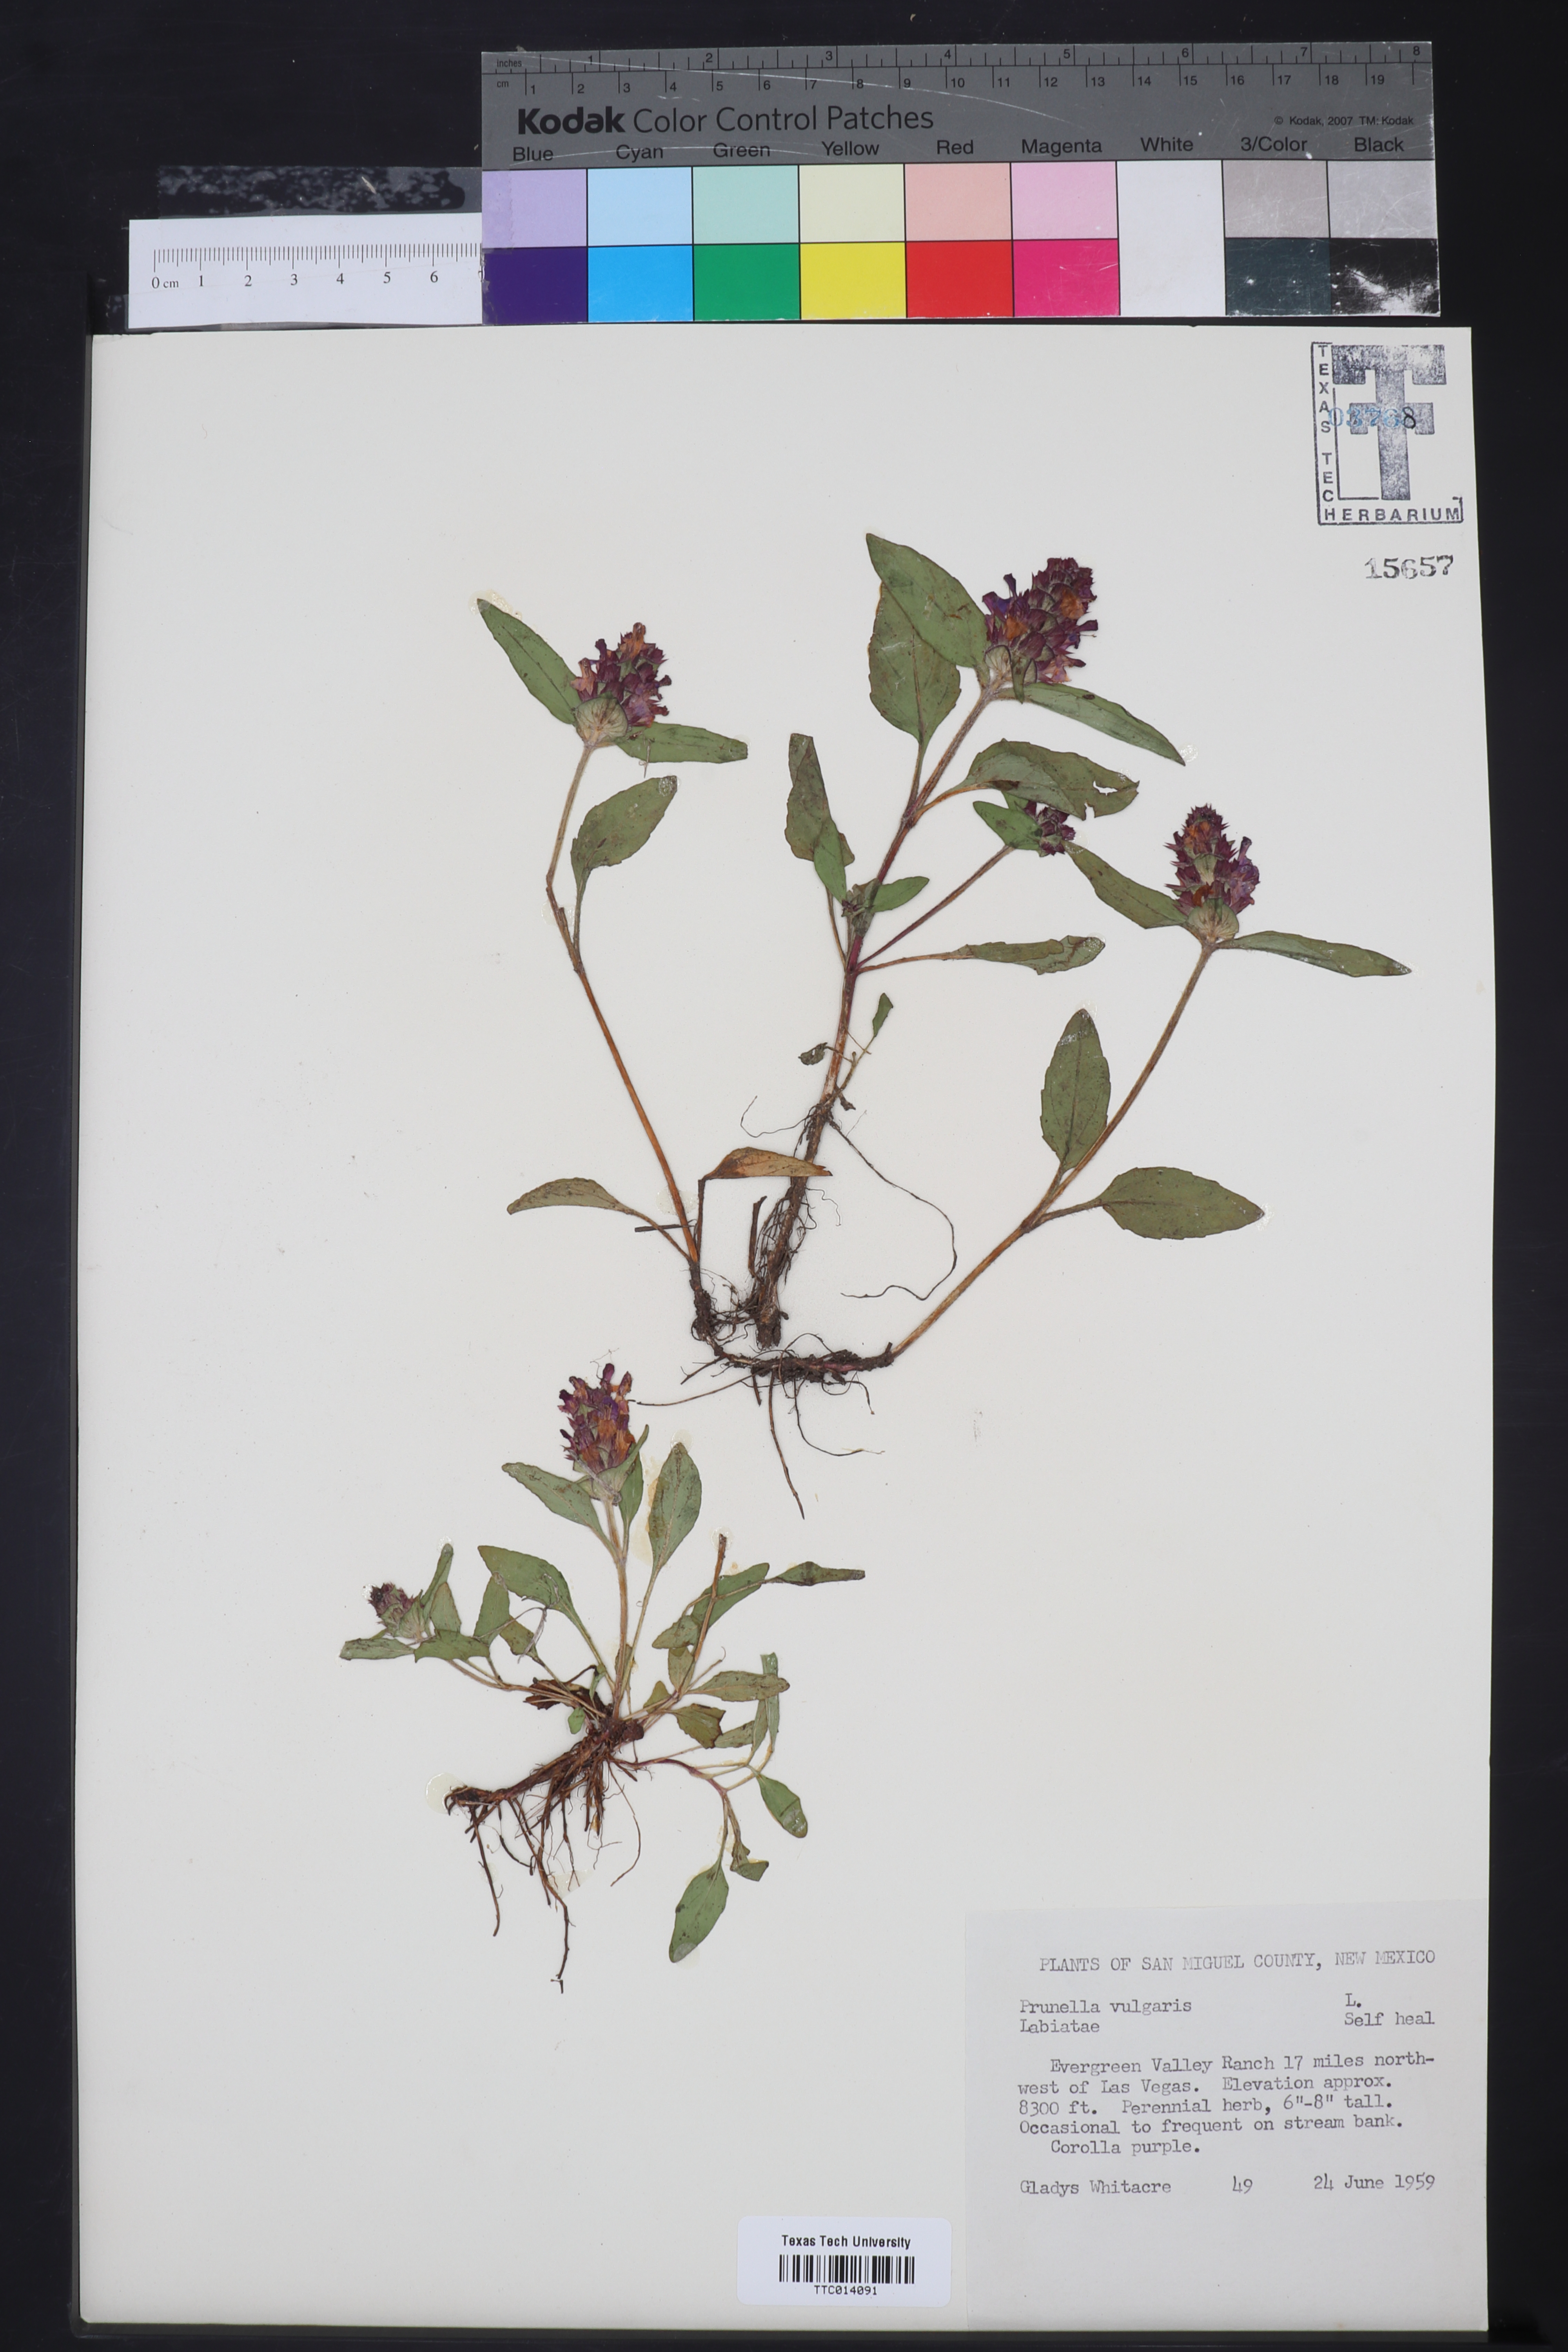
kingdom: Plantae
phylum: Tracheophyta
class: Magnoliopsida
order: Lamiales
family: Lamiaceae
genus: Prunella
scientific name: Prunella vulgaris
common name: Heal-all
